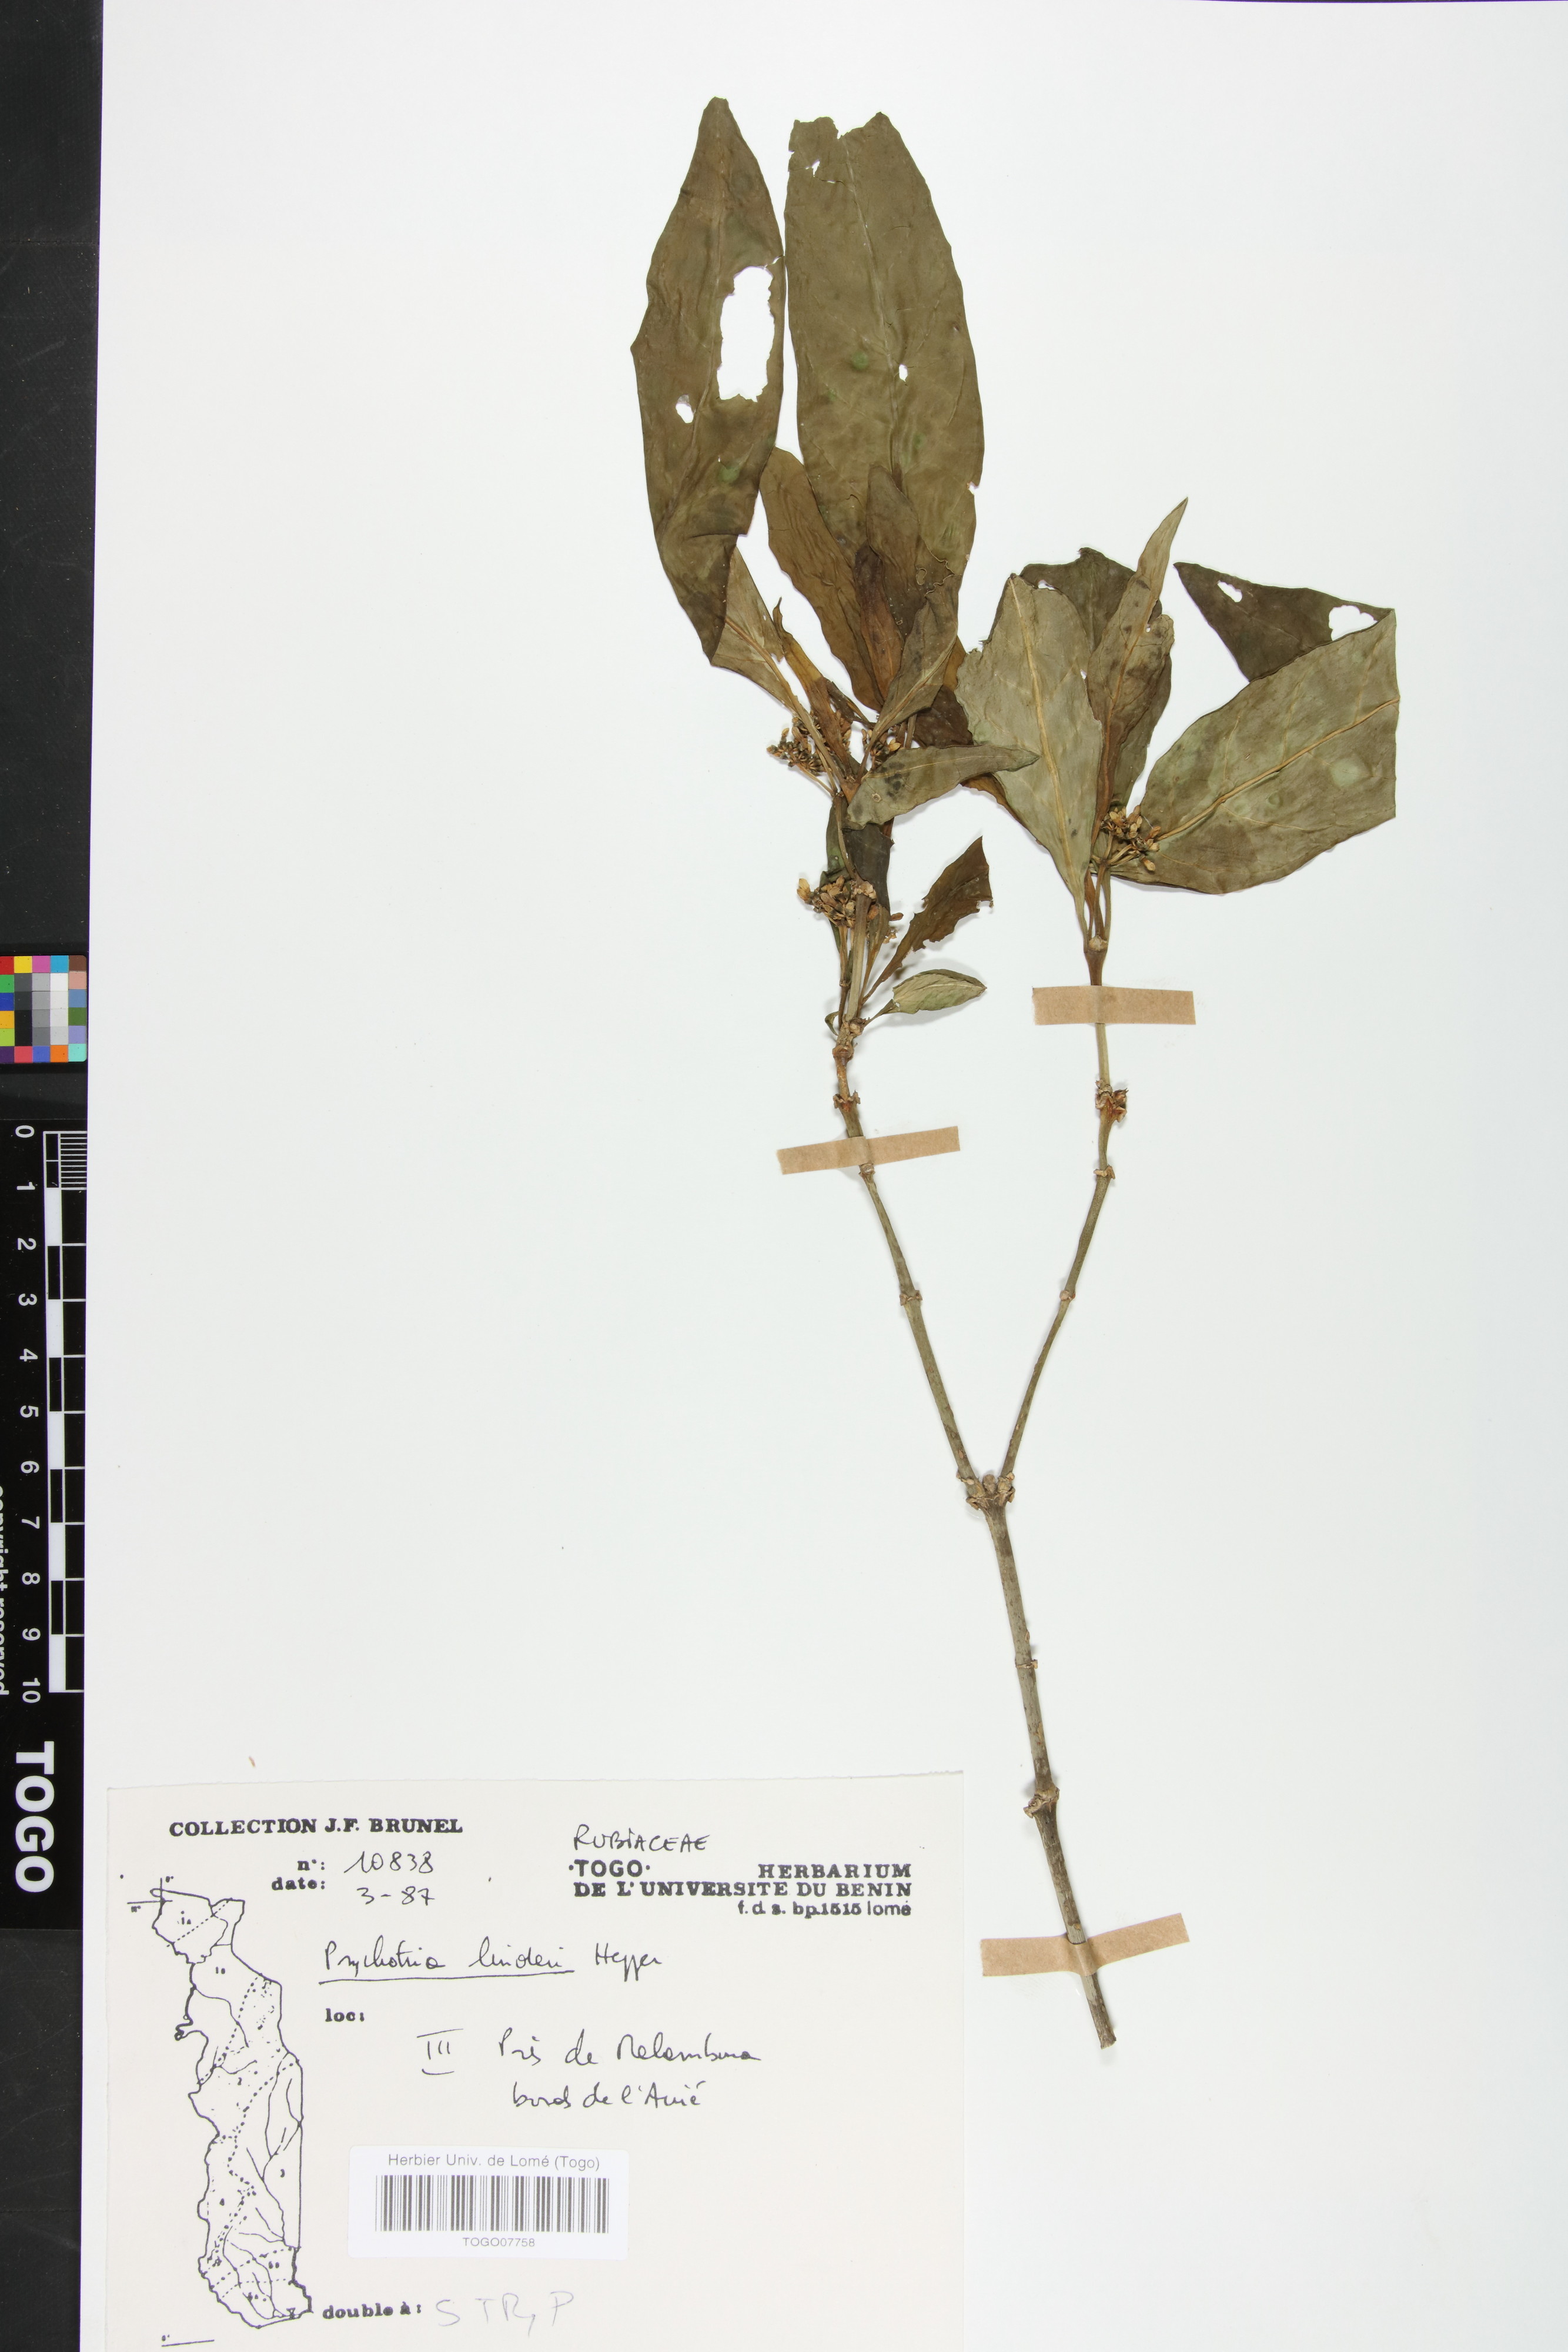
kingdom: Plantae
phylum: Tracheophyta
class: Magnoliopsida
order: Gentianales
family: Rubiaceae
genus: Psychotria
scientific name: Psychotria linderi
